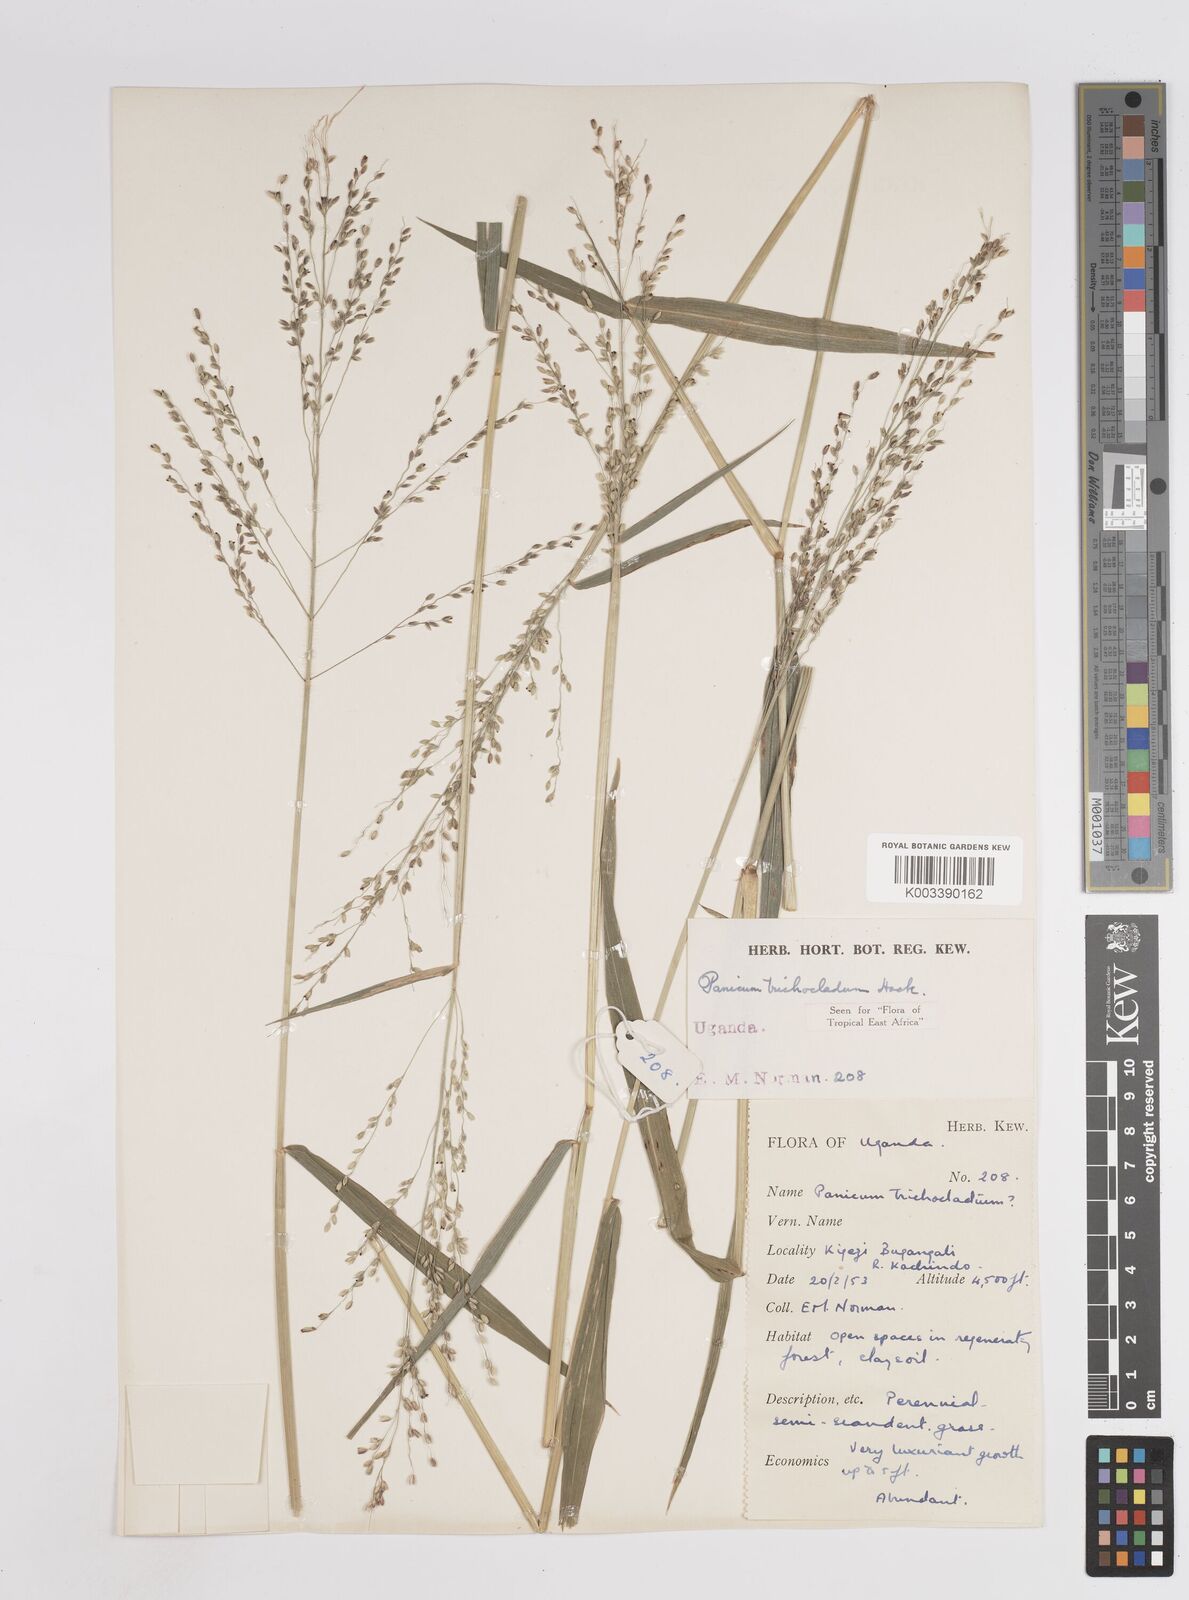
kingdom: Plantae
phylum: Tracheophyta
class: Liliopsida
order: Poales
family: Poaceae
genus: Panicum
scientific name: Panicum trichocladum
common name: Donkey grass
